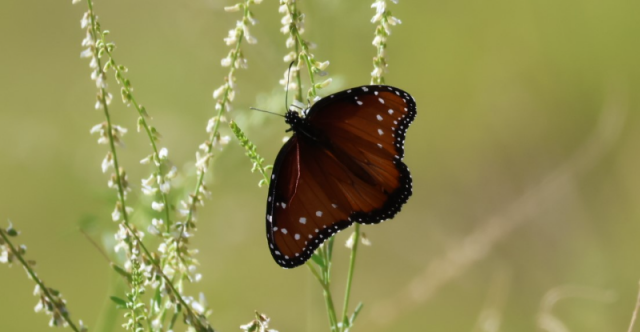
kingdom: Animalia
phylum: Arthropoda
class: Insecta
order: Lepidoptera
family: Nymphalidae
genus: Danaus
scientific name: Danaus gilippus
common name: Queen
